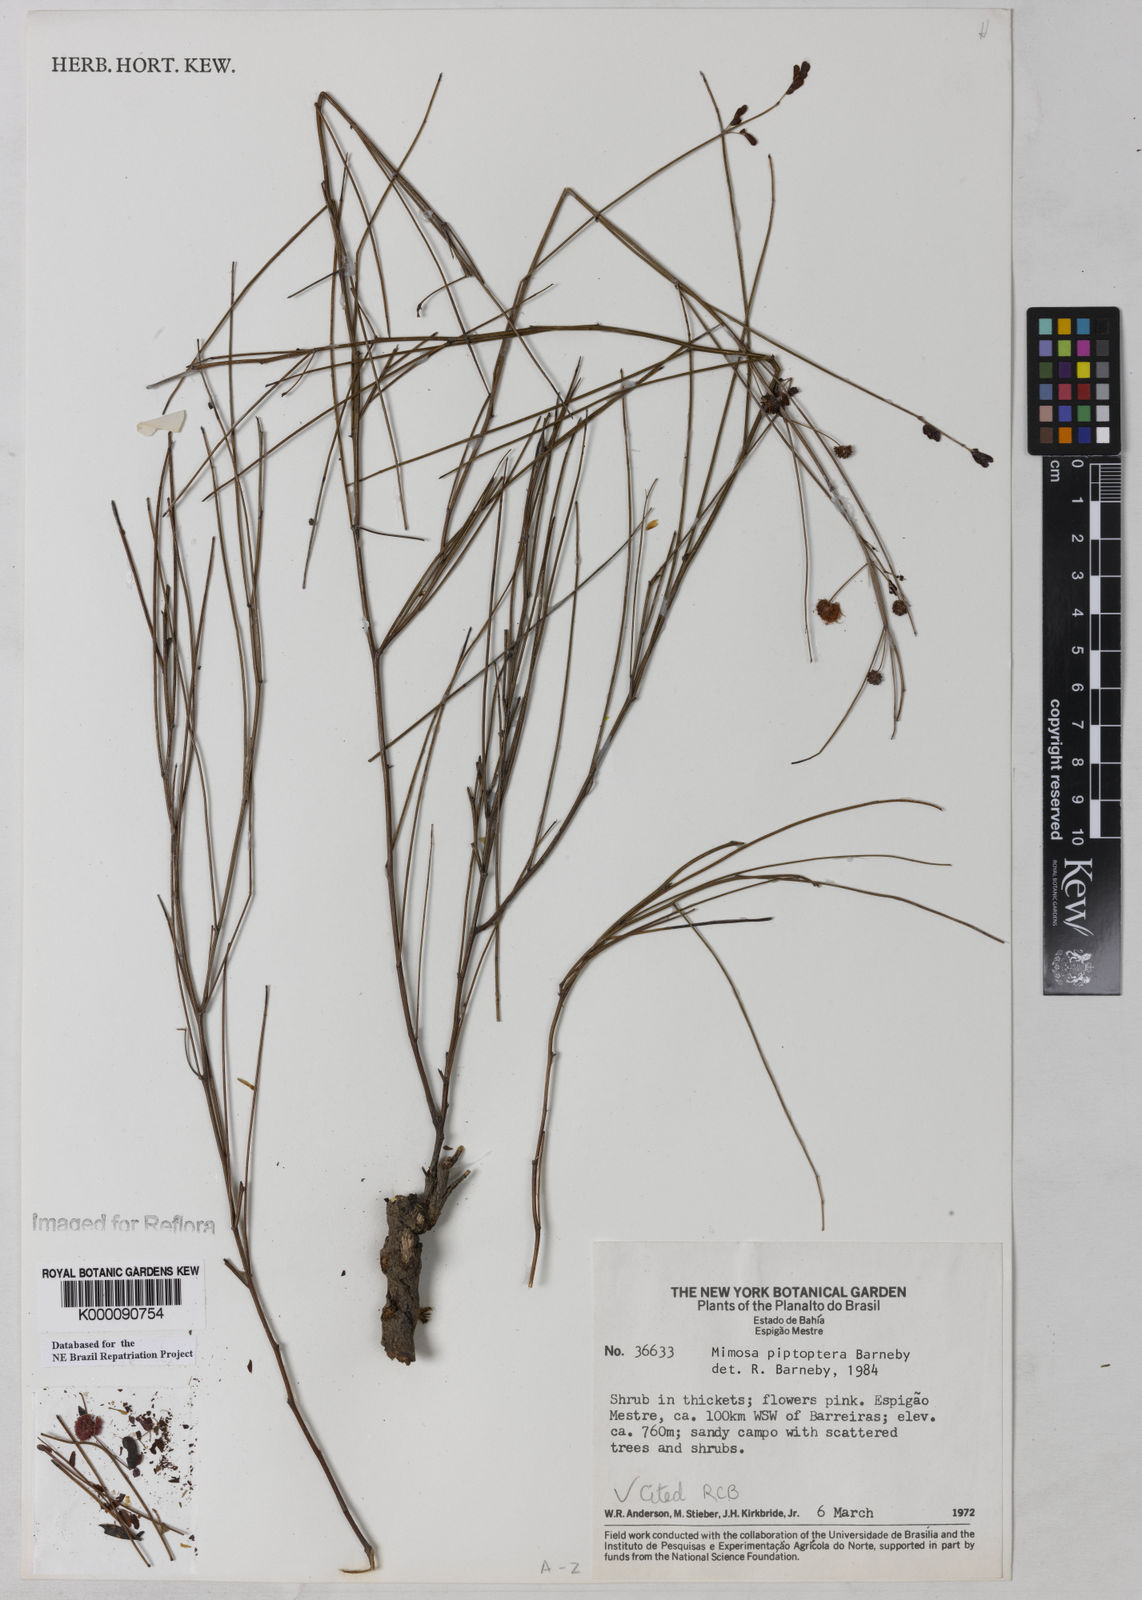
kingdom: Plantae
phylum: Tracheophyta
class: Magnoliopsida
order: Fabales
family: Fabaceae
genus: Mimosa
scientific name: Mimosa piptoptera
